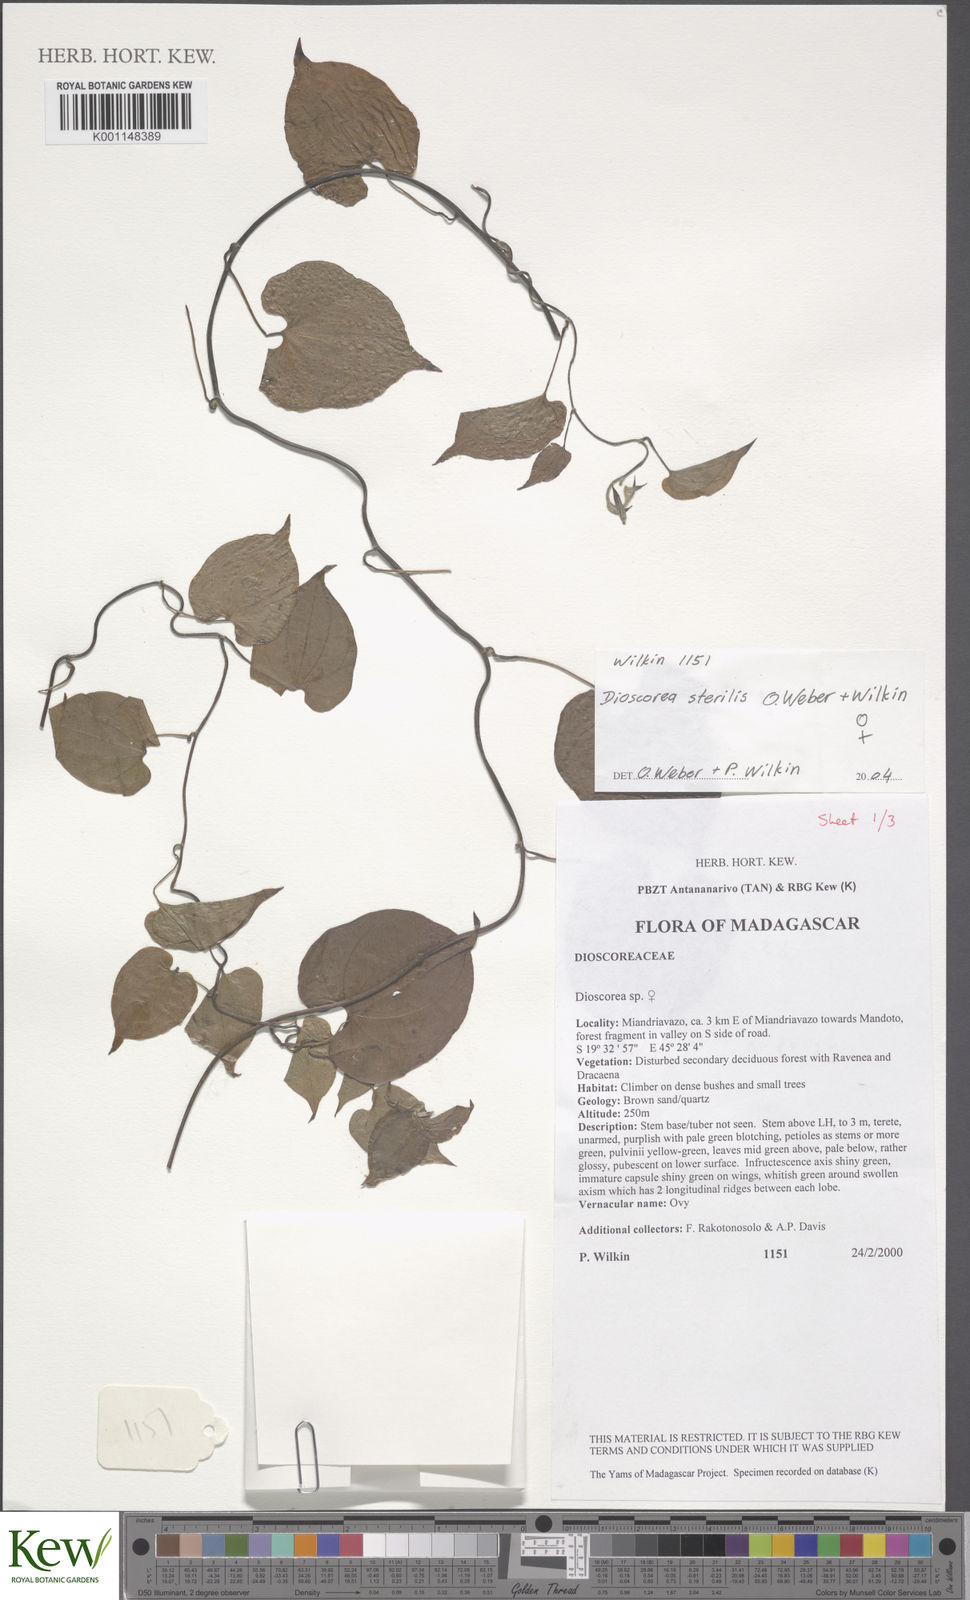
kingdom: Plantae
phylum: Tracheophyta
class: Liliopsida
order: Dioscoreales
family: Dioscoreaceae
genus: Dioscorea
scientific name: Dioscorea sterilis
